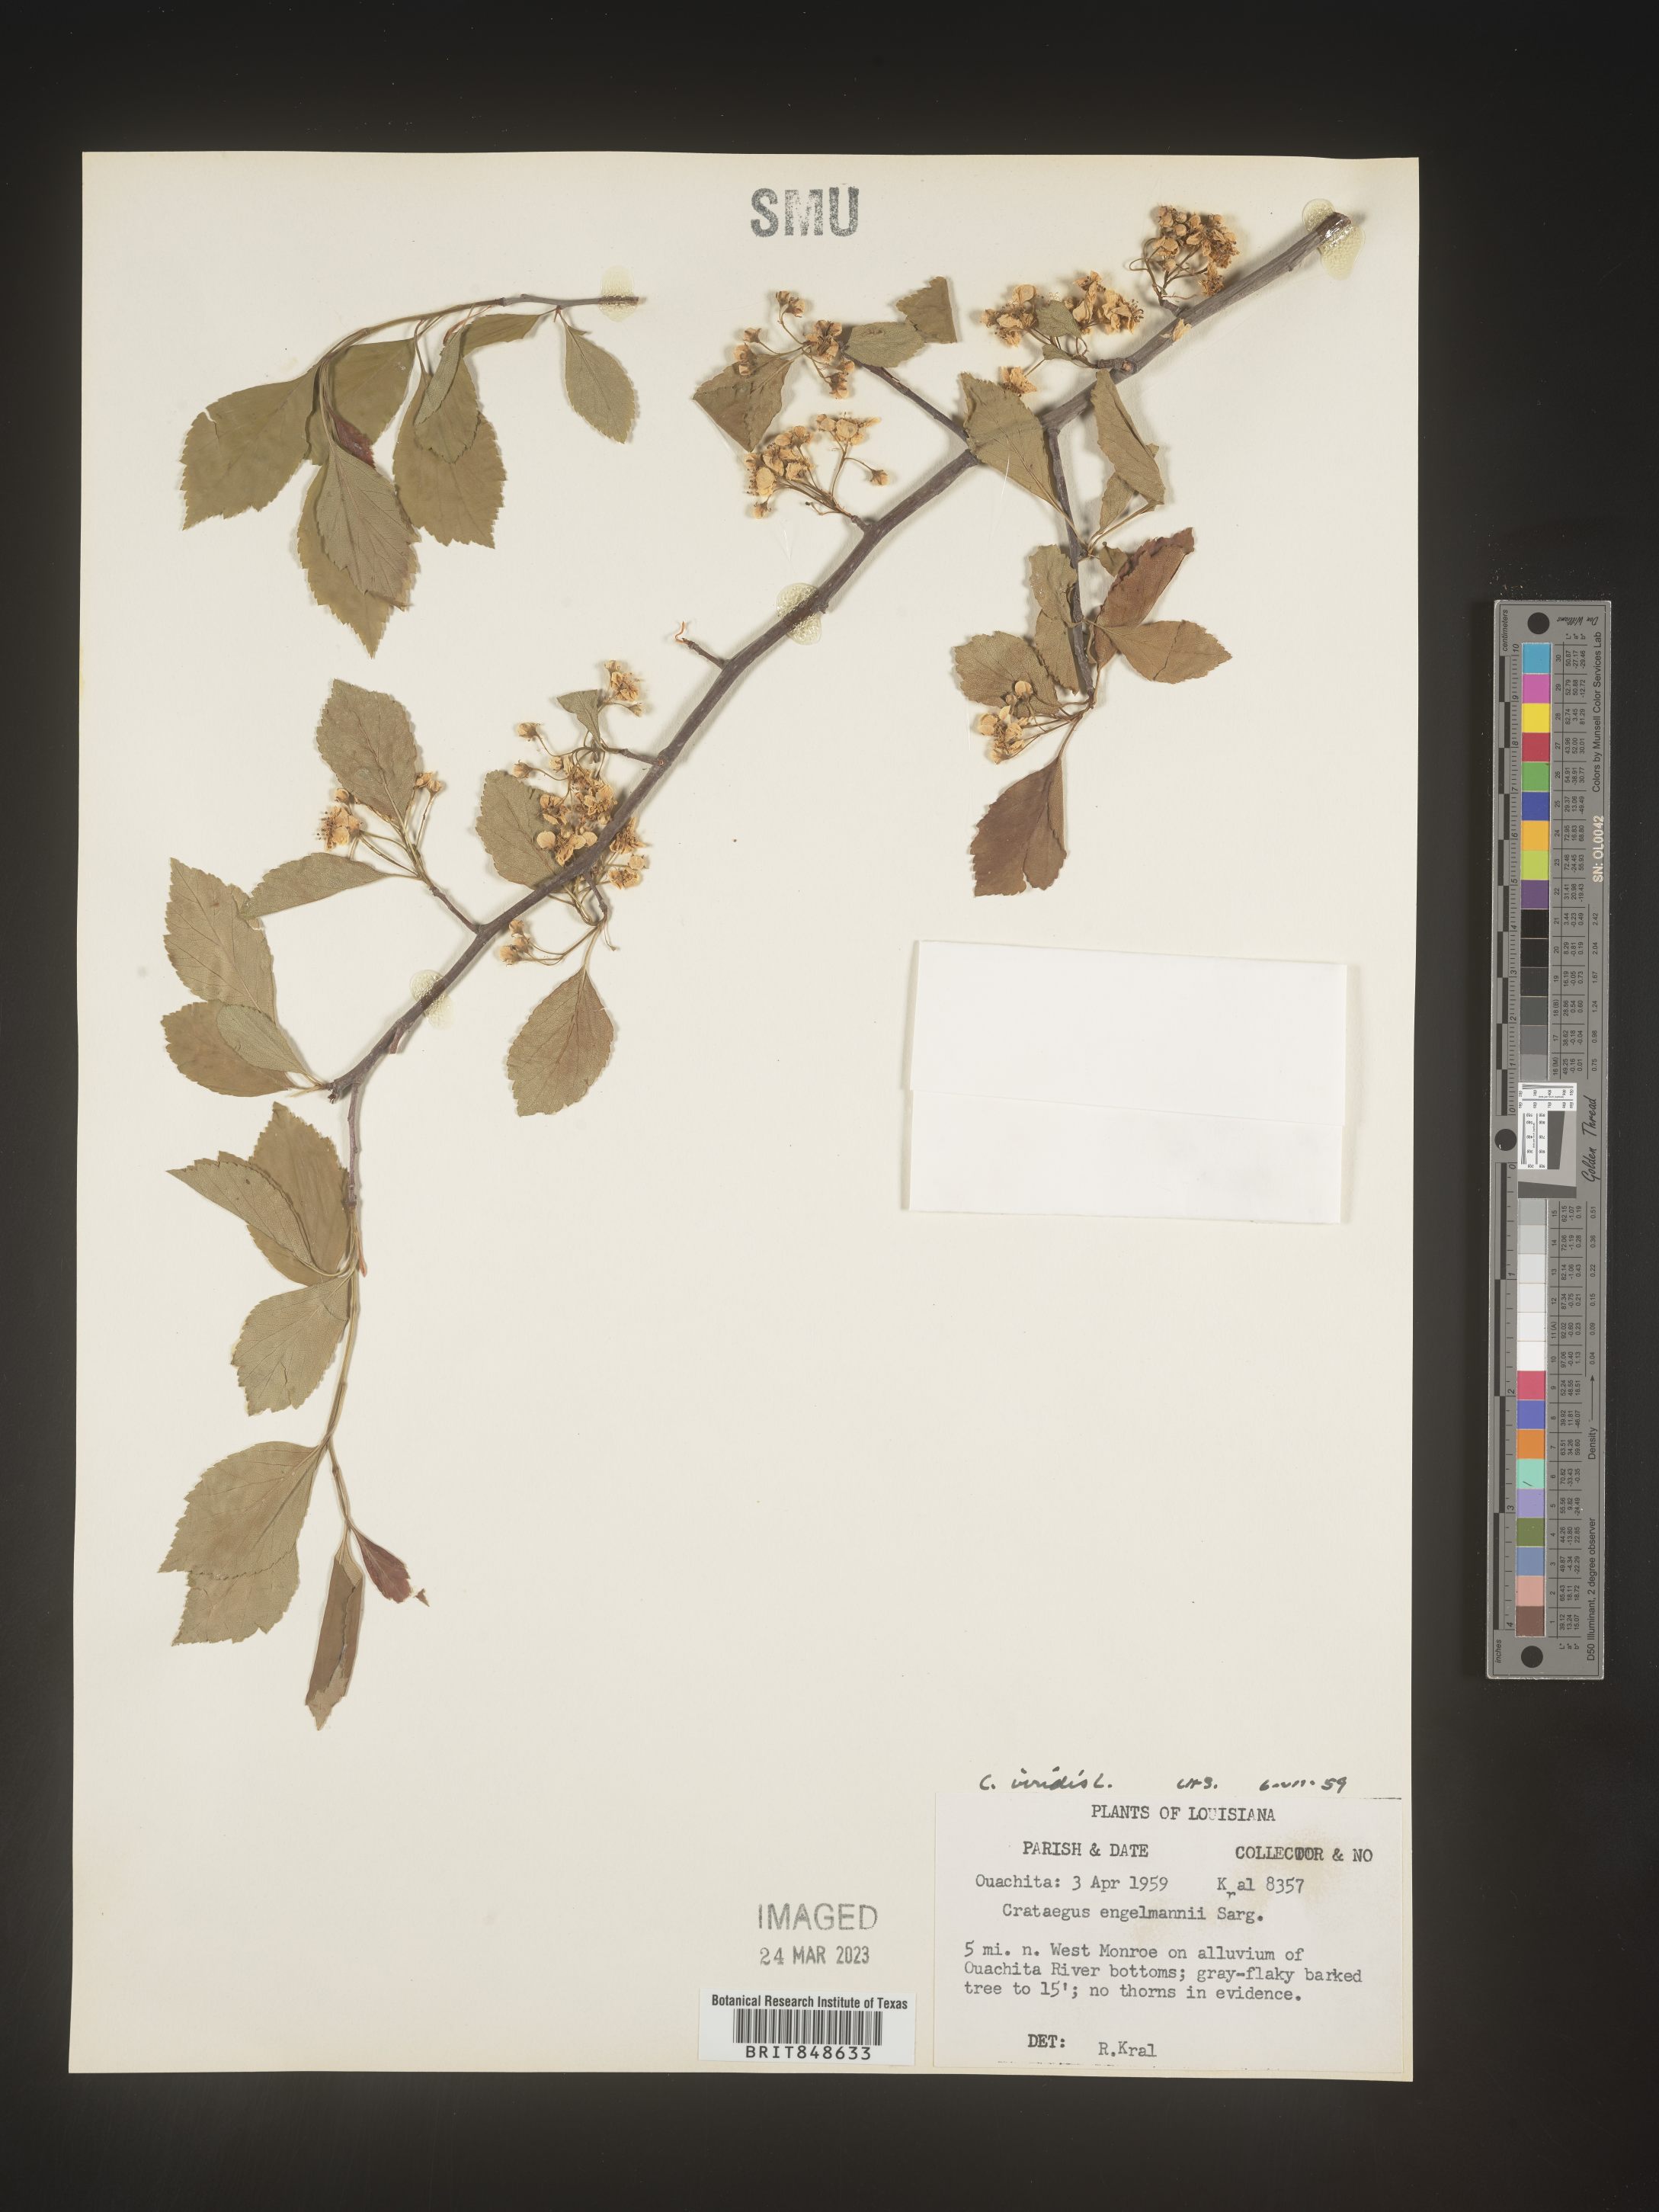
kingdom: Plantae
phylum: Tracheophyta
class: Magnoliopsida
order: Rosales
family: Rosaceae
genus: Crataegus
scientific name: Crataegus viridis
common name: Southernthorn
